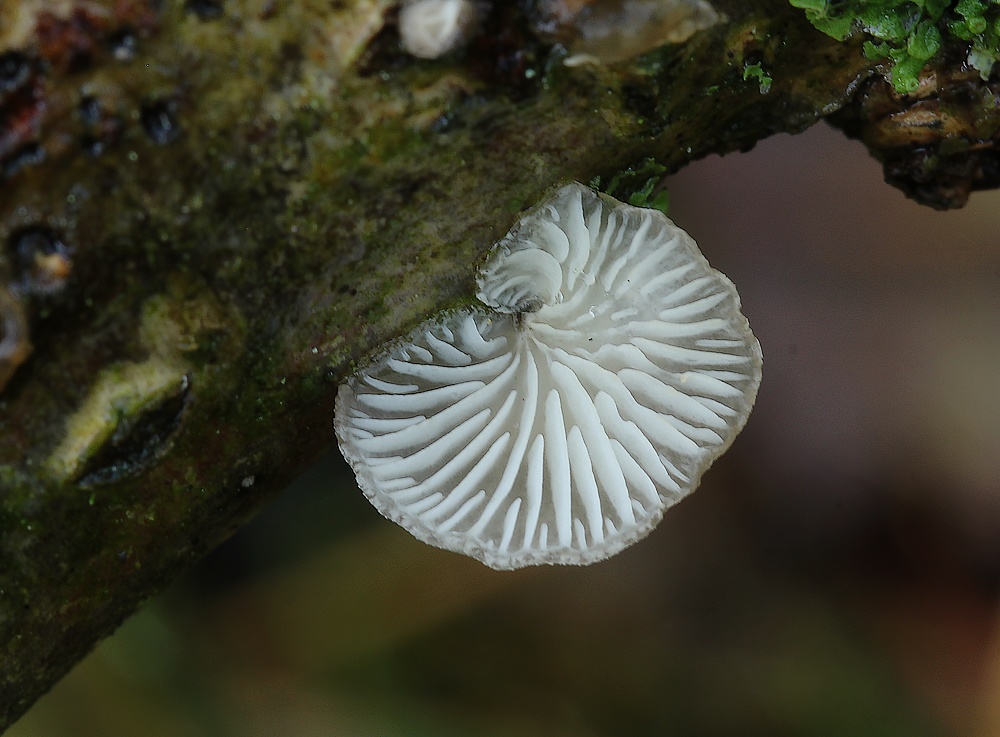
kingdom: Fungi
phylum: Basidiomycota
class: Agaricomycetes
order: Agaricales
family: Pleurotaceae
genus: Hohenbuehelia
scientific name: Hohenbuehelia fluxilis
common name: pile-filthat
